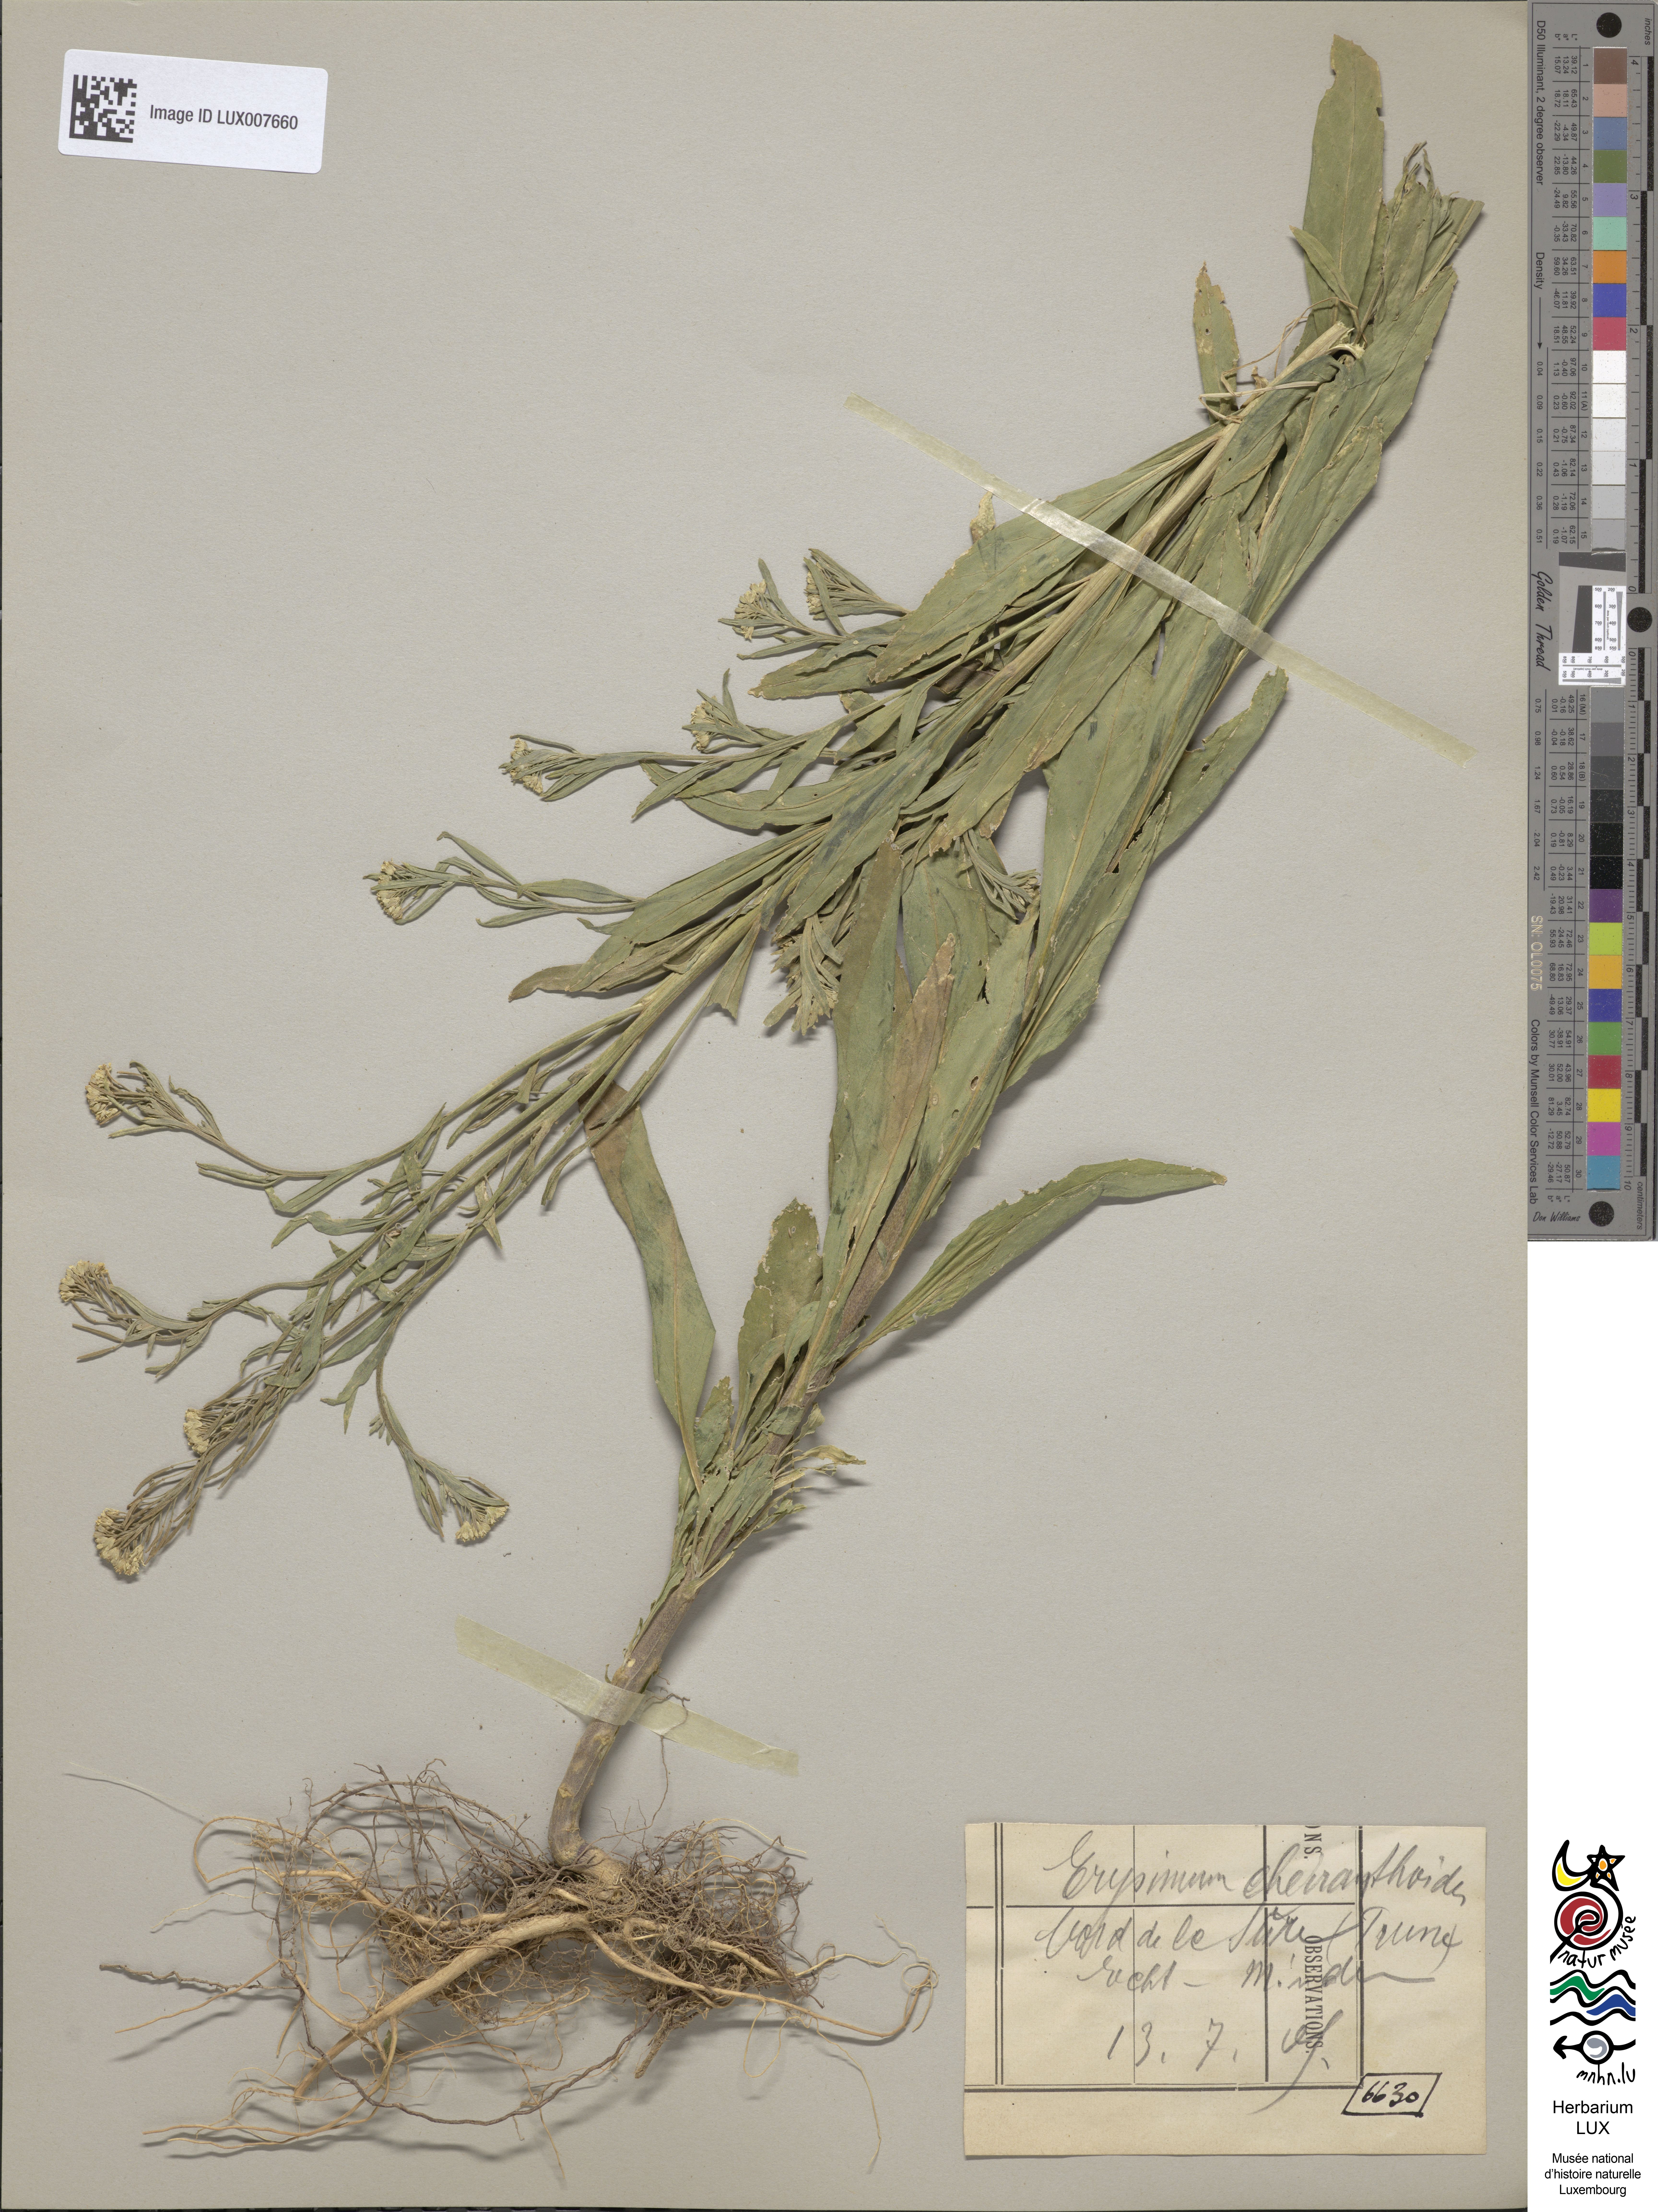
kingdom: Plantae
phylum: Tracheophyta
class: Magnoliopsida
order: Brassicales
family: Brassicaceae
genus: Erysimum
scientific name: Erysimum cheiranthoides
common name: Treacle mustard
